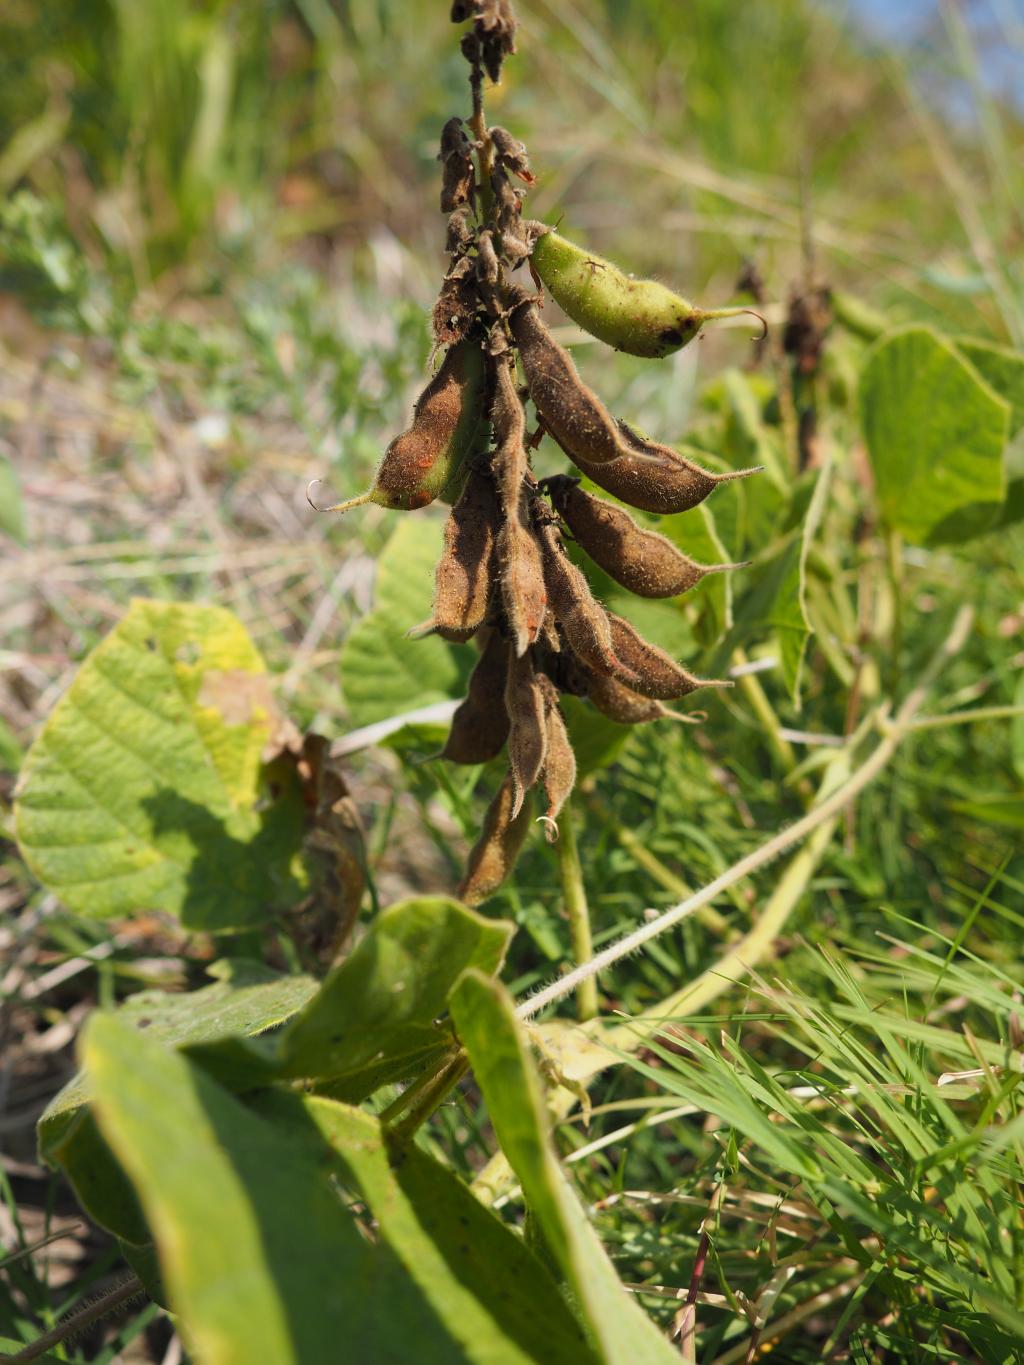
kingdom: Plantae
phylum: Tracheophyta
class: Magnoliopsida
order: Fabales
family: Fabaceae
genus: Rhynchosia
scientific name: Rhynchosia rothii
